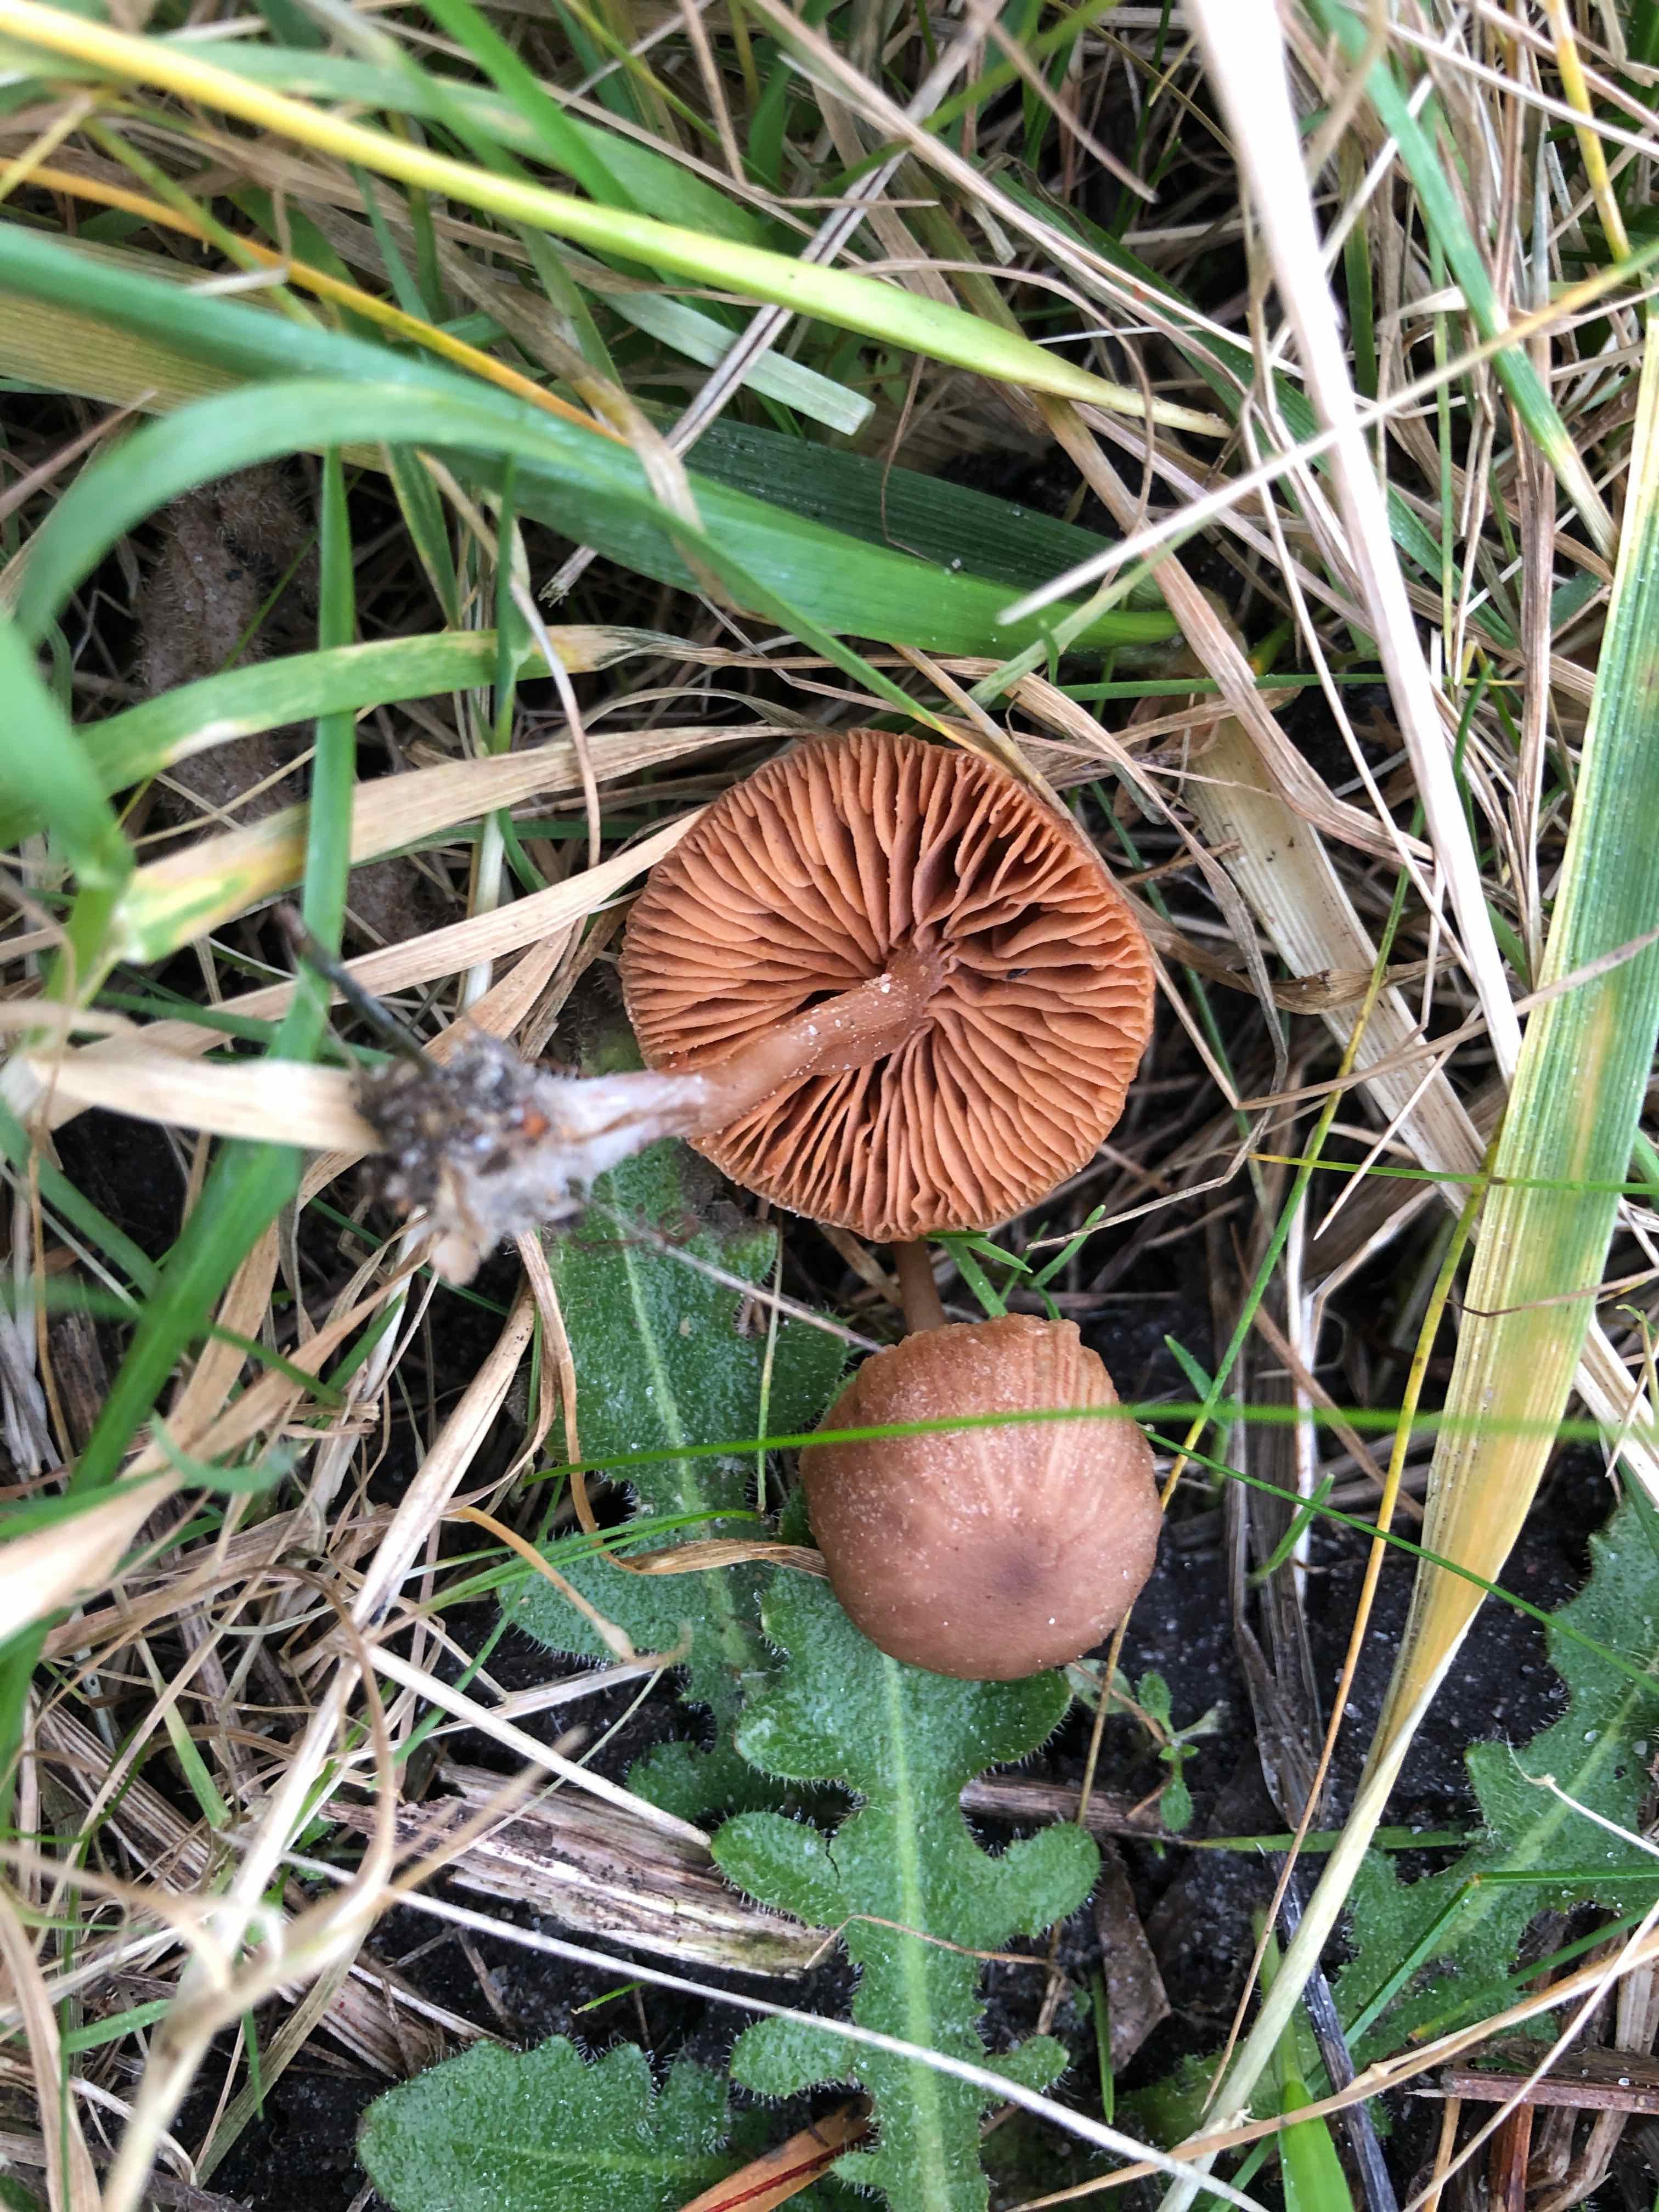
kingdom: Fungi
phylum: Basidiomycota
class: Agaricomycetes
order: Agaricales
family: Tubariaceae
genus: Tubaria
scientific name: Tubaria furfuracea
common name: kliddet fnughat
